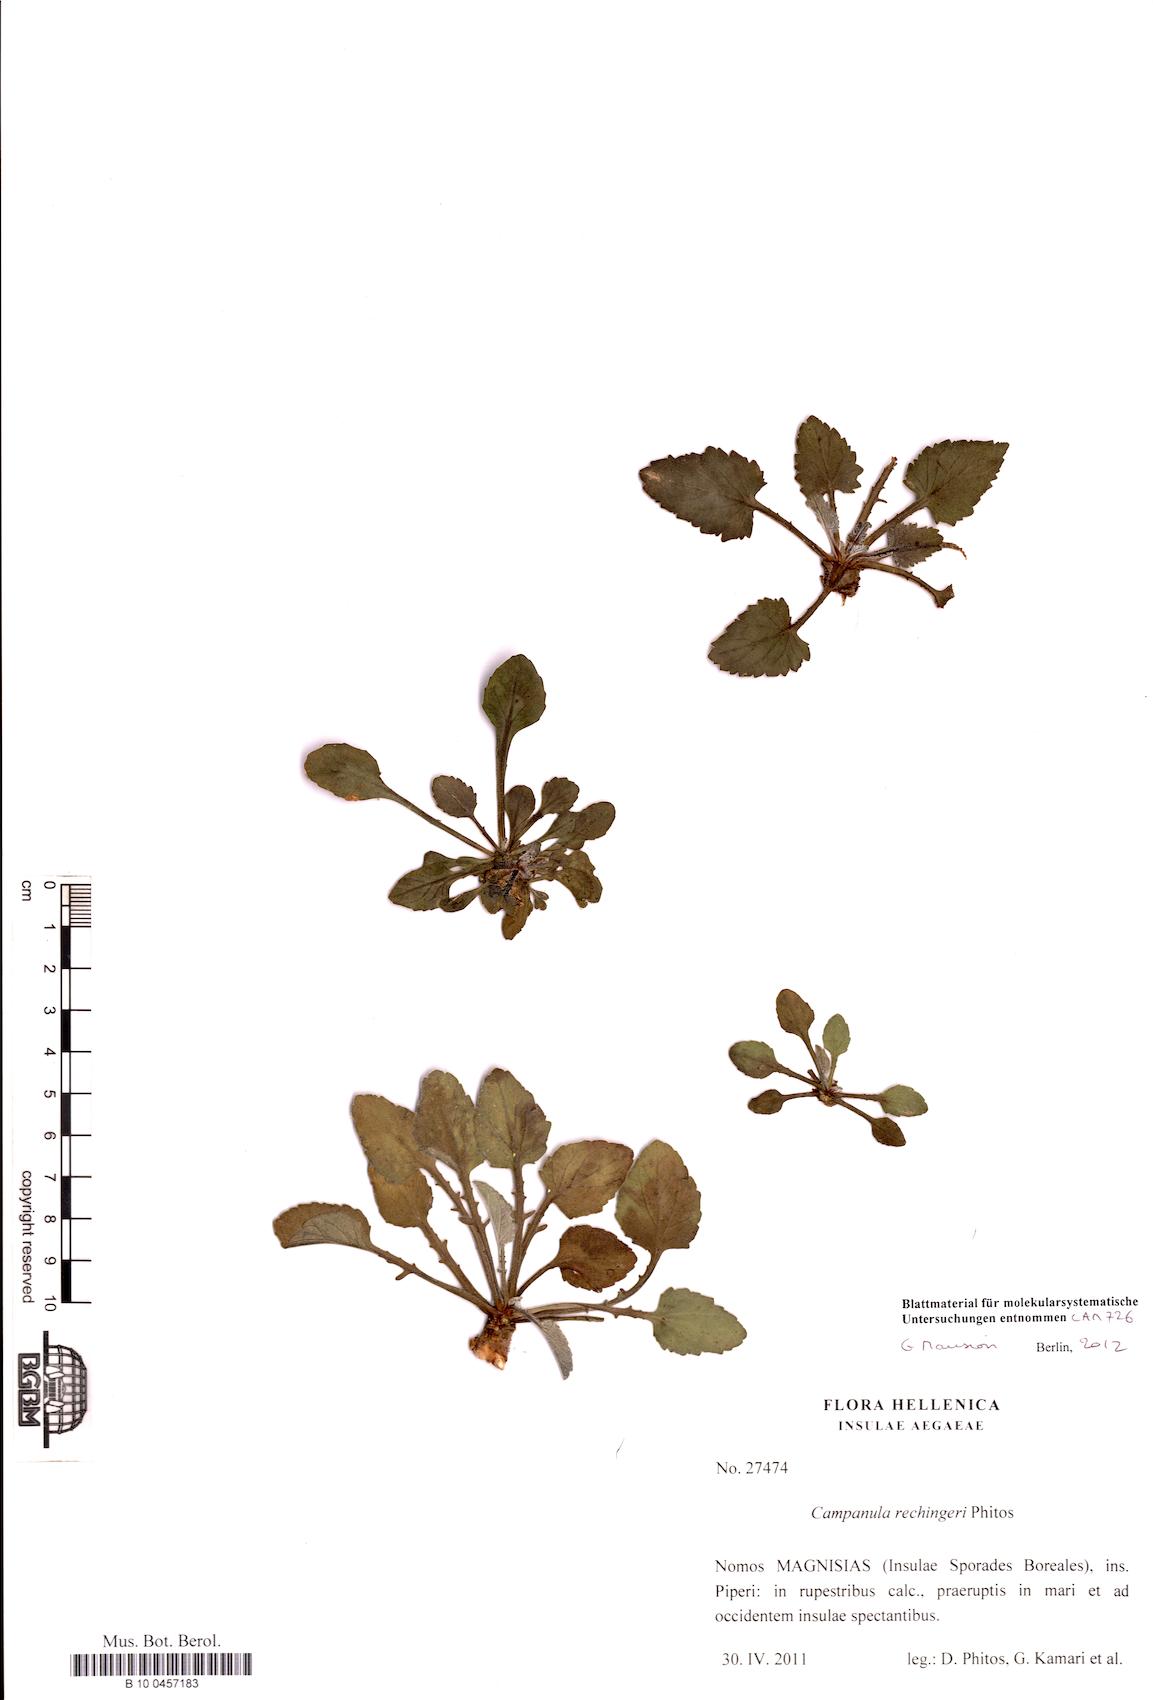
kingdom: Plantae
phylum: Tracheophyta
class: Magnoliopsida
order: Asterales
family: Campanulaceae
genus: Campanula
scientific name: Campanula rechingeri
